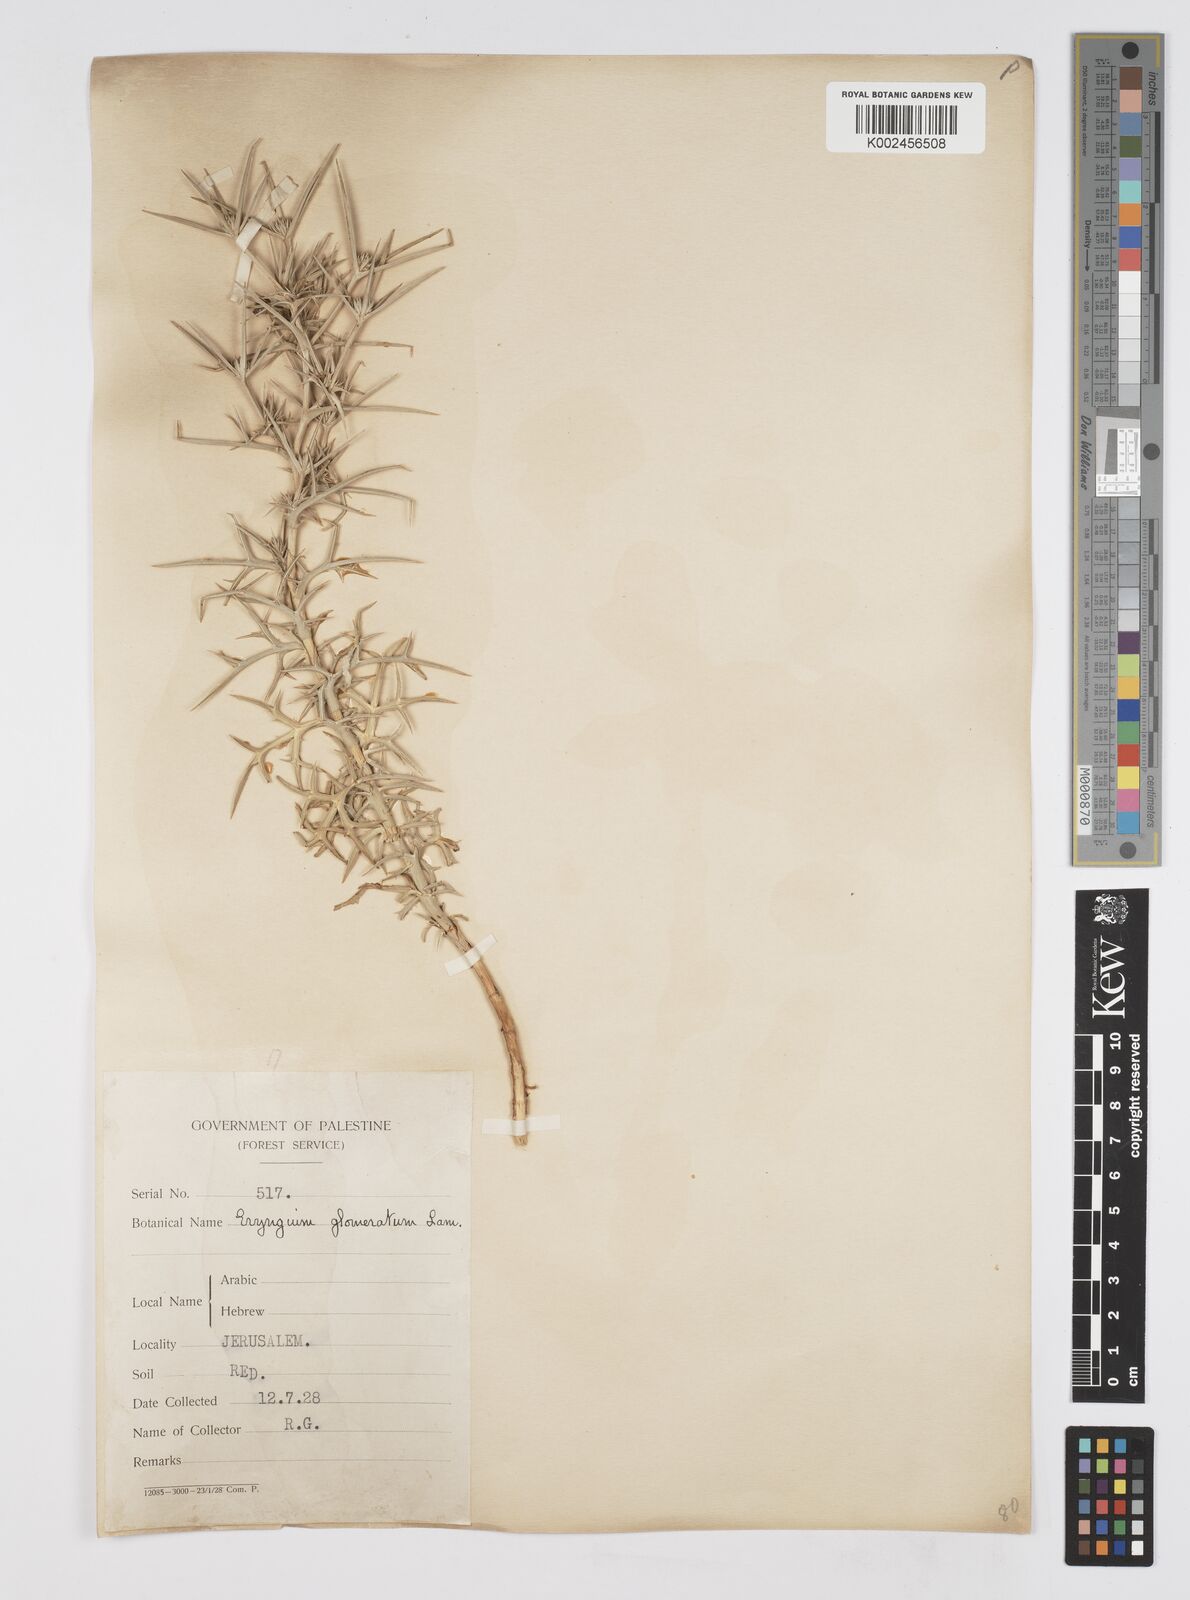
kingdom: Plantae
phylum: Tracheophyta
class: Magnoliopsida
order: Apiales
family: Apiaceae
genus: Eryngium
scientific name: Eryngium glomeratum
